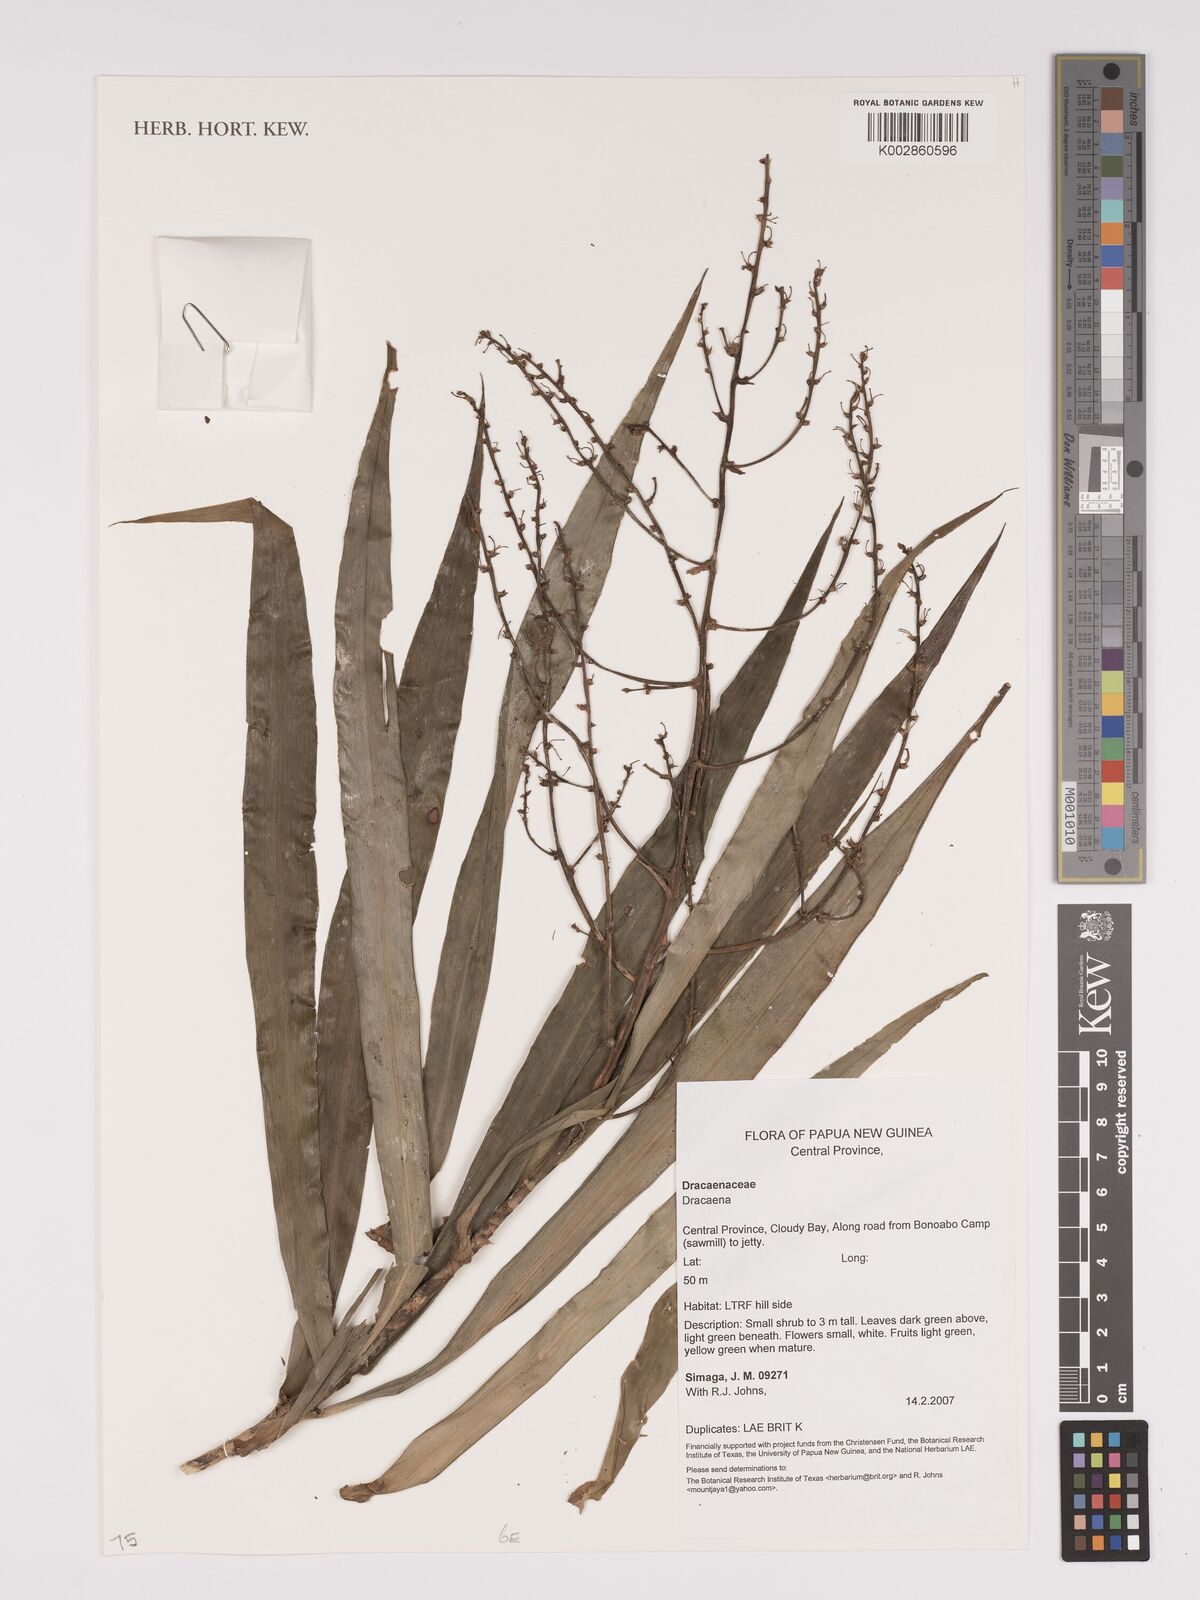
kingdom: Plantae
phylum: Tracheophyta
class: Liliopsida
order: Asparagales
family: Asparagaceae
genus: Dracaena
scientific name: Dracaena
